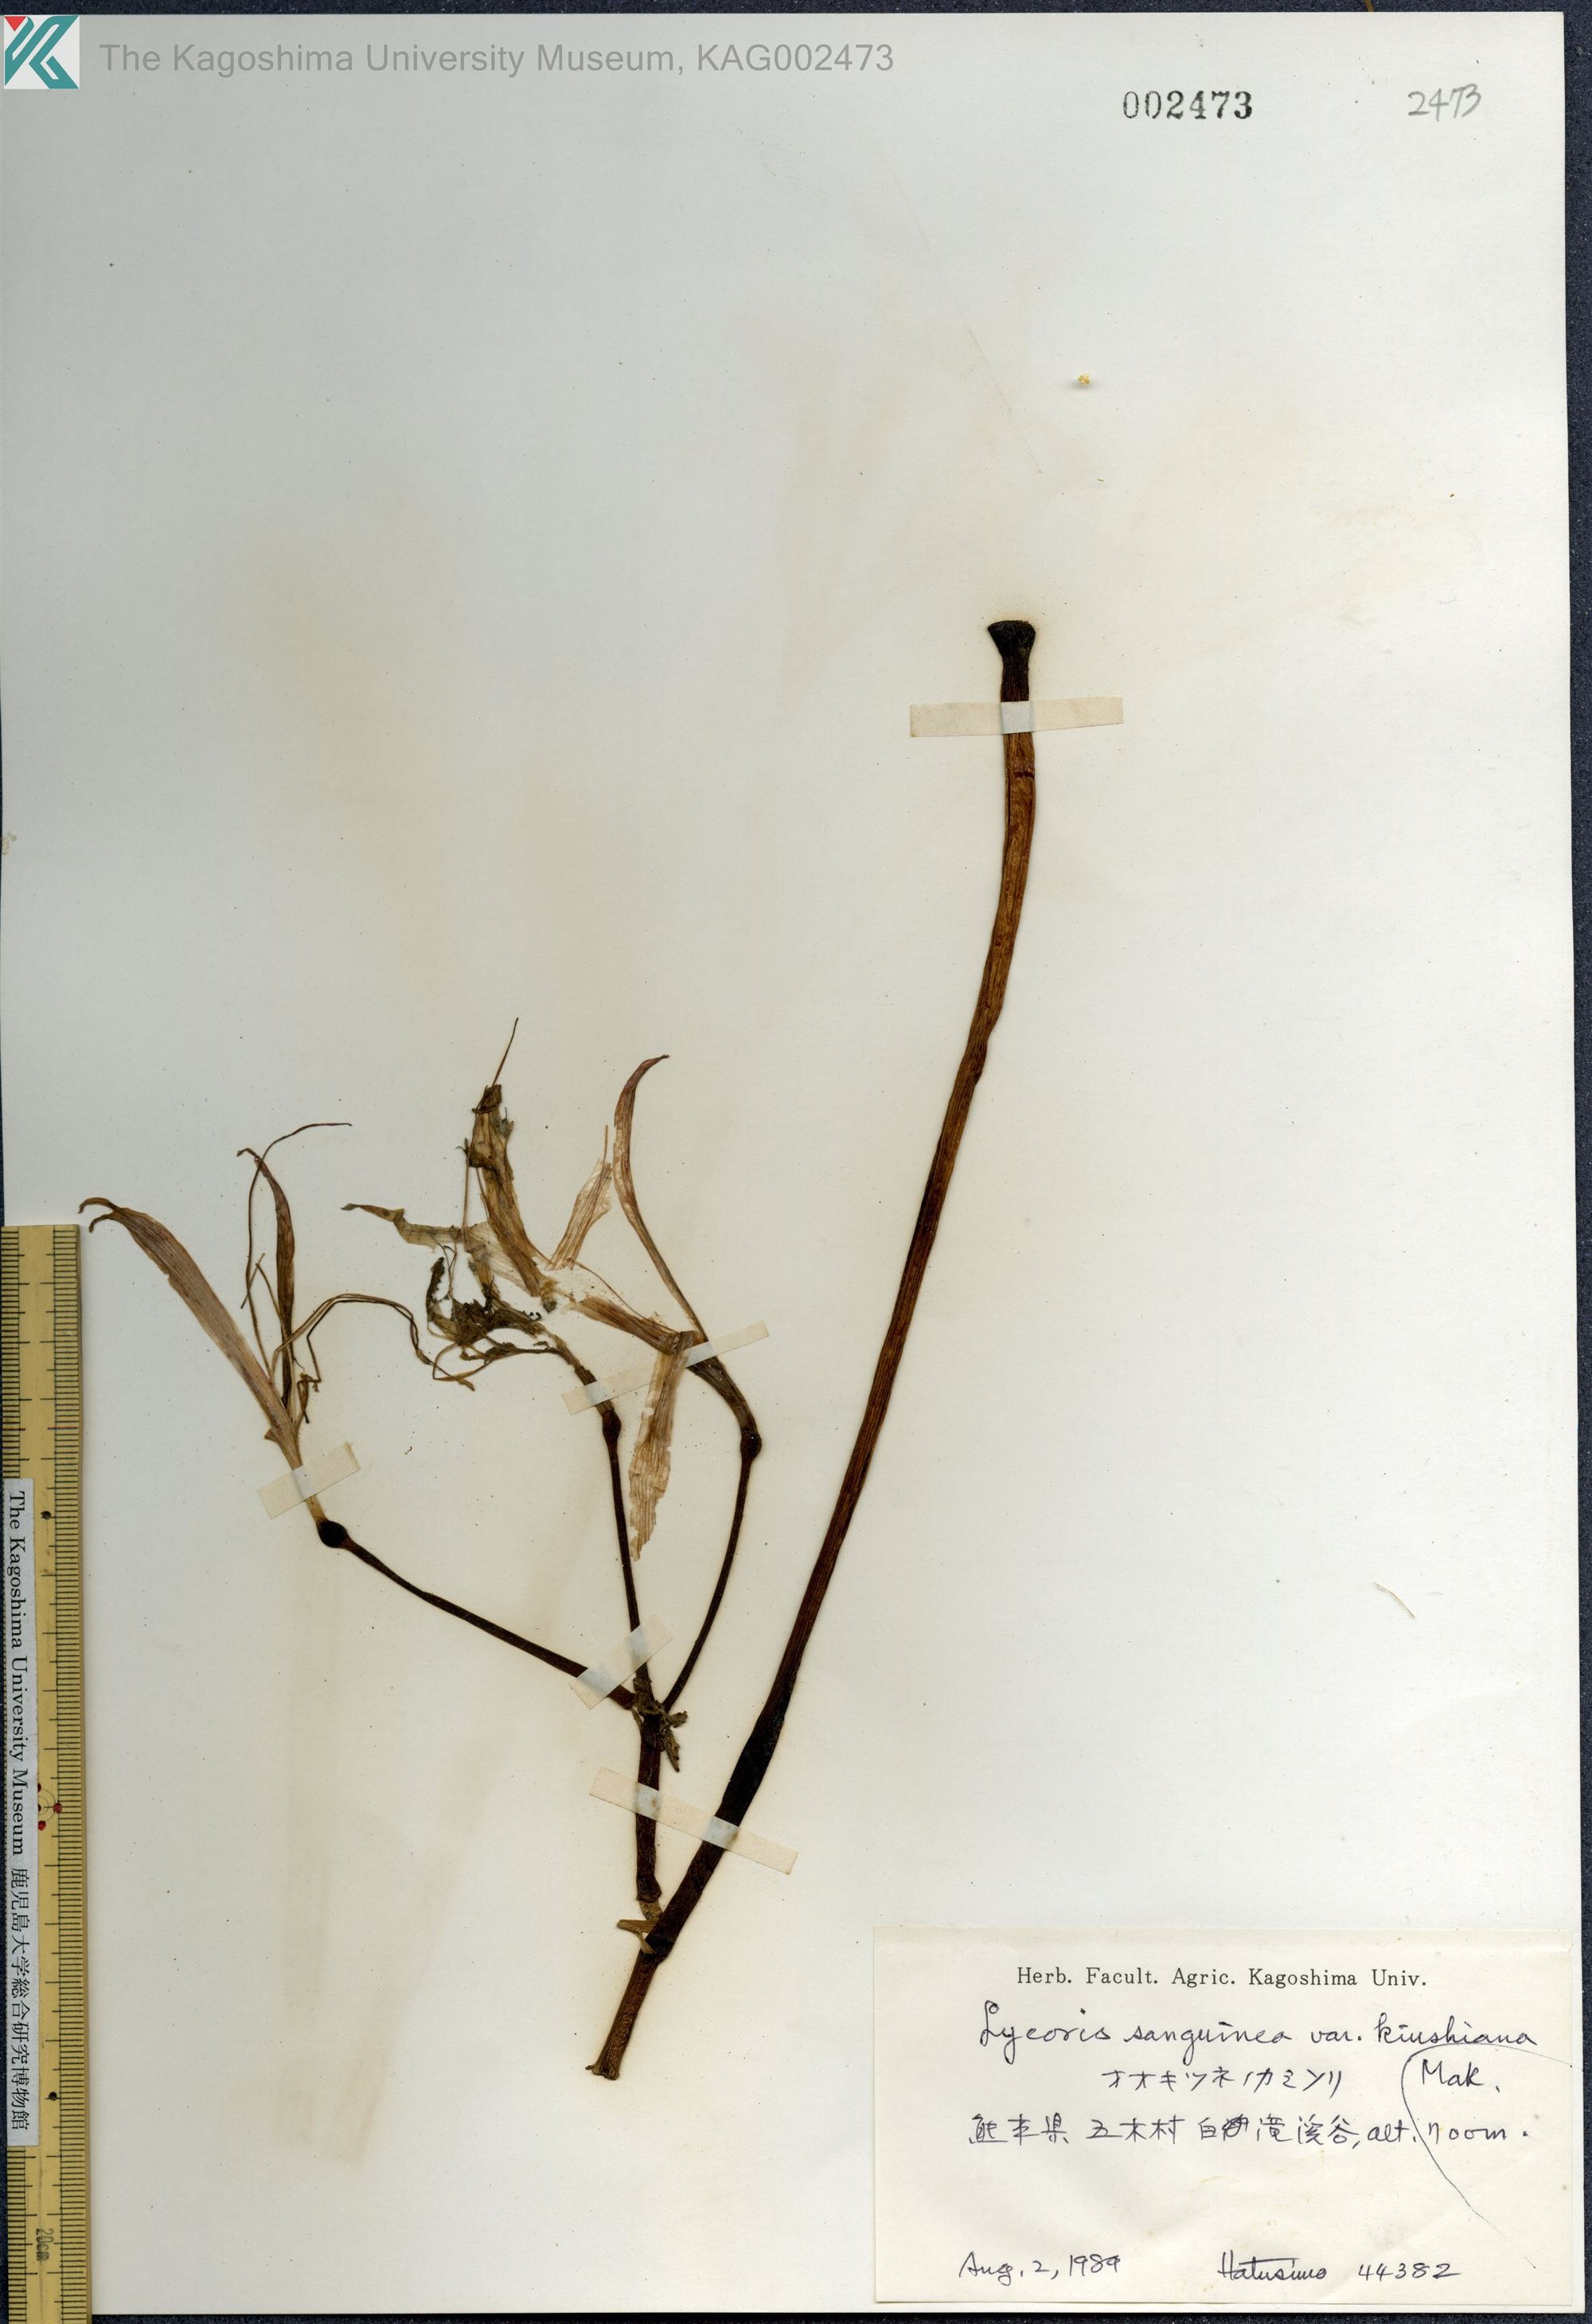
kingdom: Plantae
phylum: Tracheophyta
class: Liliopsida
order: Asparagales
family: Amaryllidaceae
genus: Lycoris
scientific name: Lycoris sanguinea
